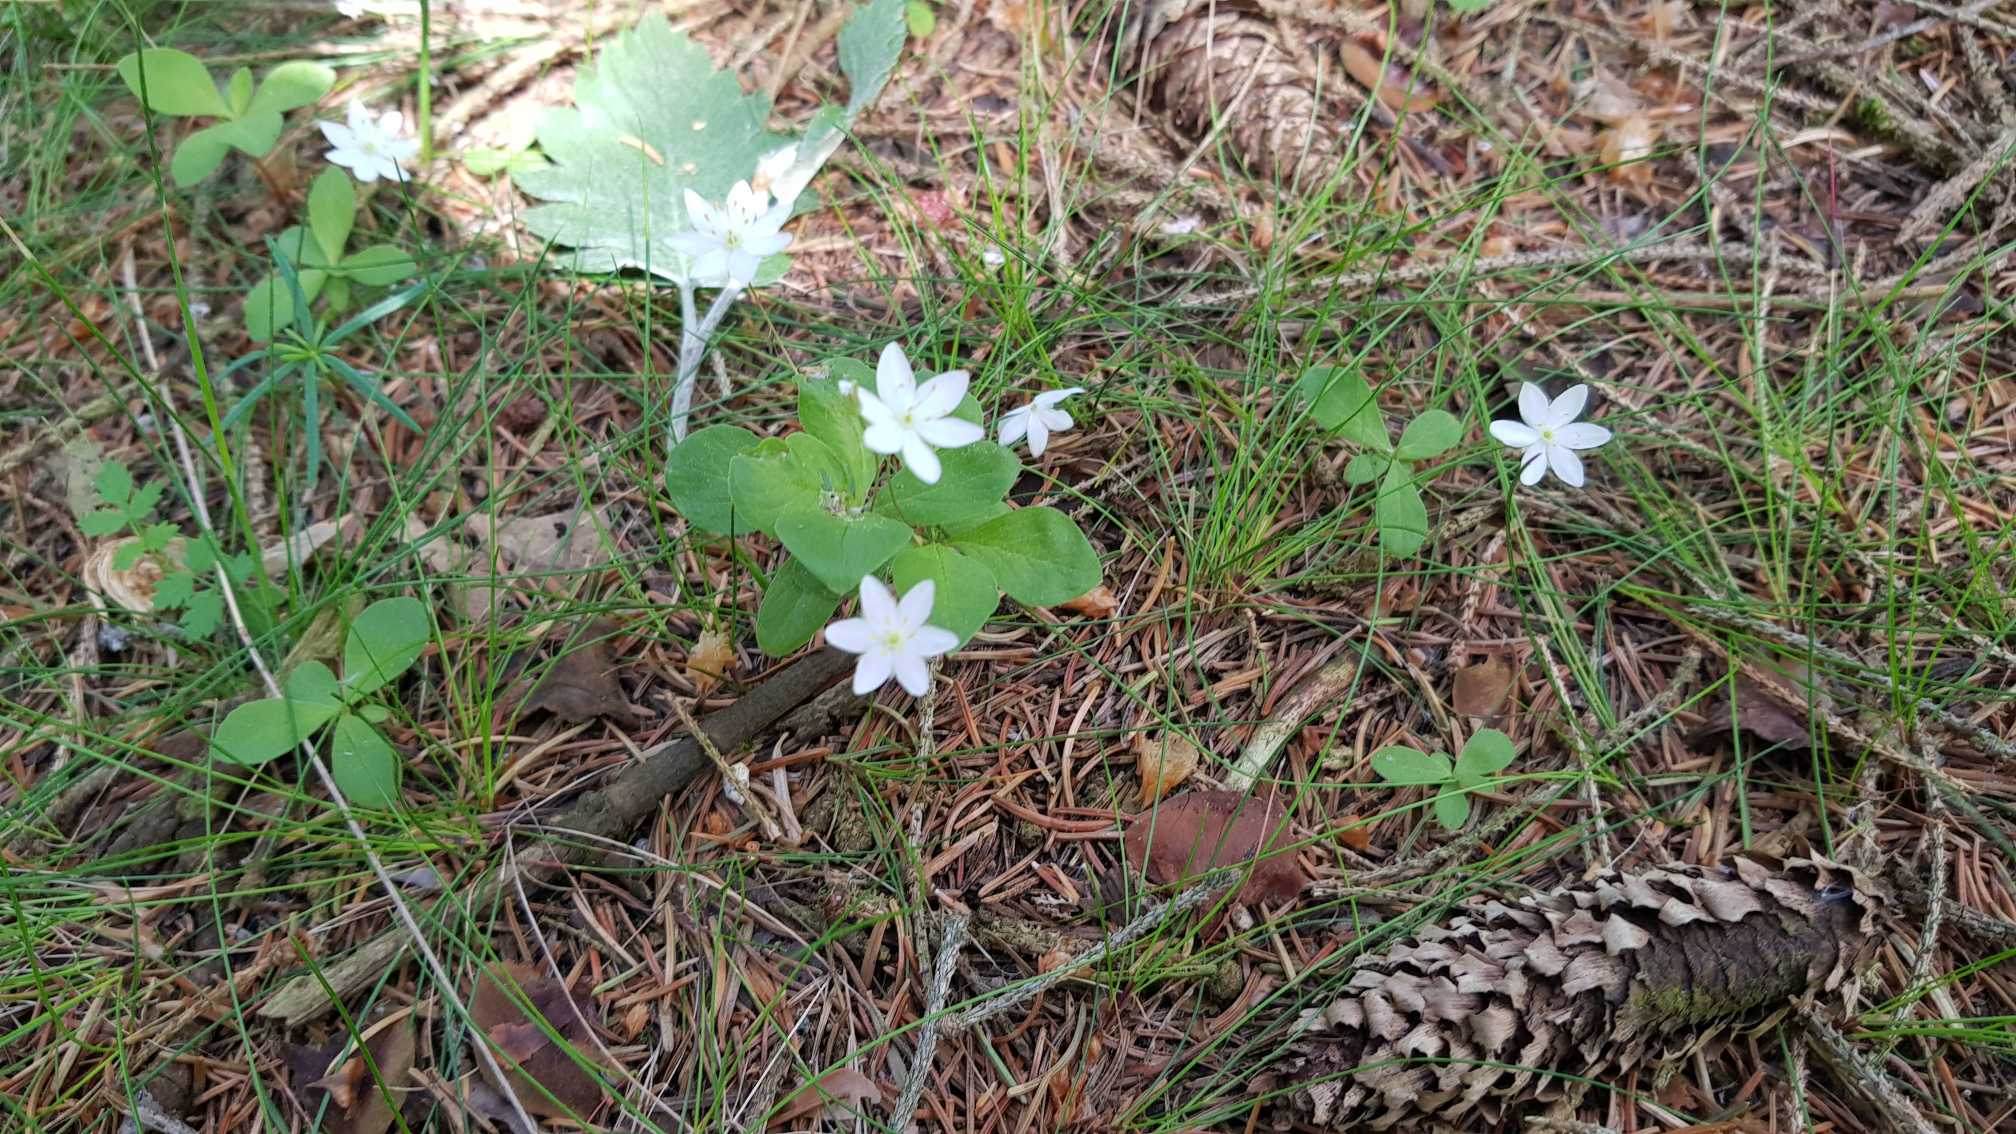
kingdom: Plantae
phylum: Tracheophyta
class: Magnoliopsida
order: Ericales
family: Primulaceae
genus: Lysimachia
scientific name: Lysimachia europaea
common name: Skovstjerne
